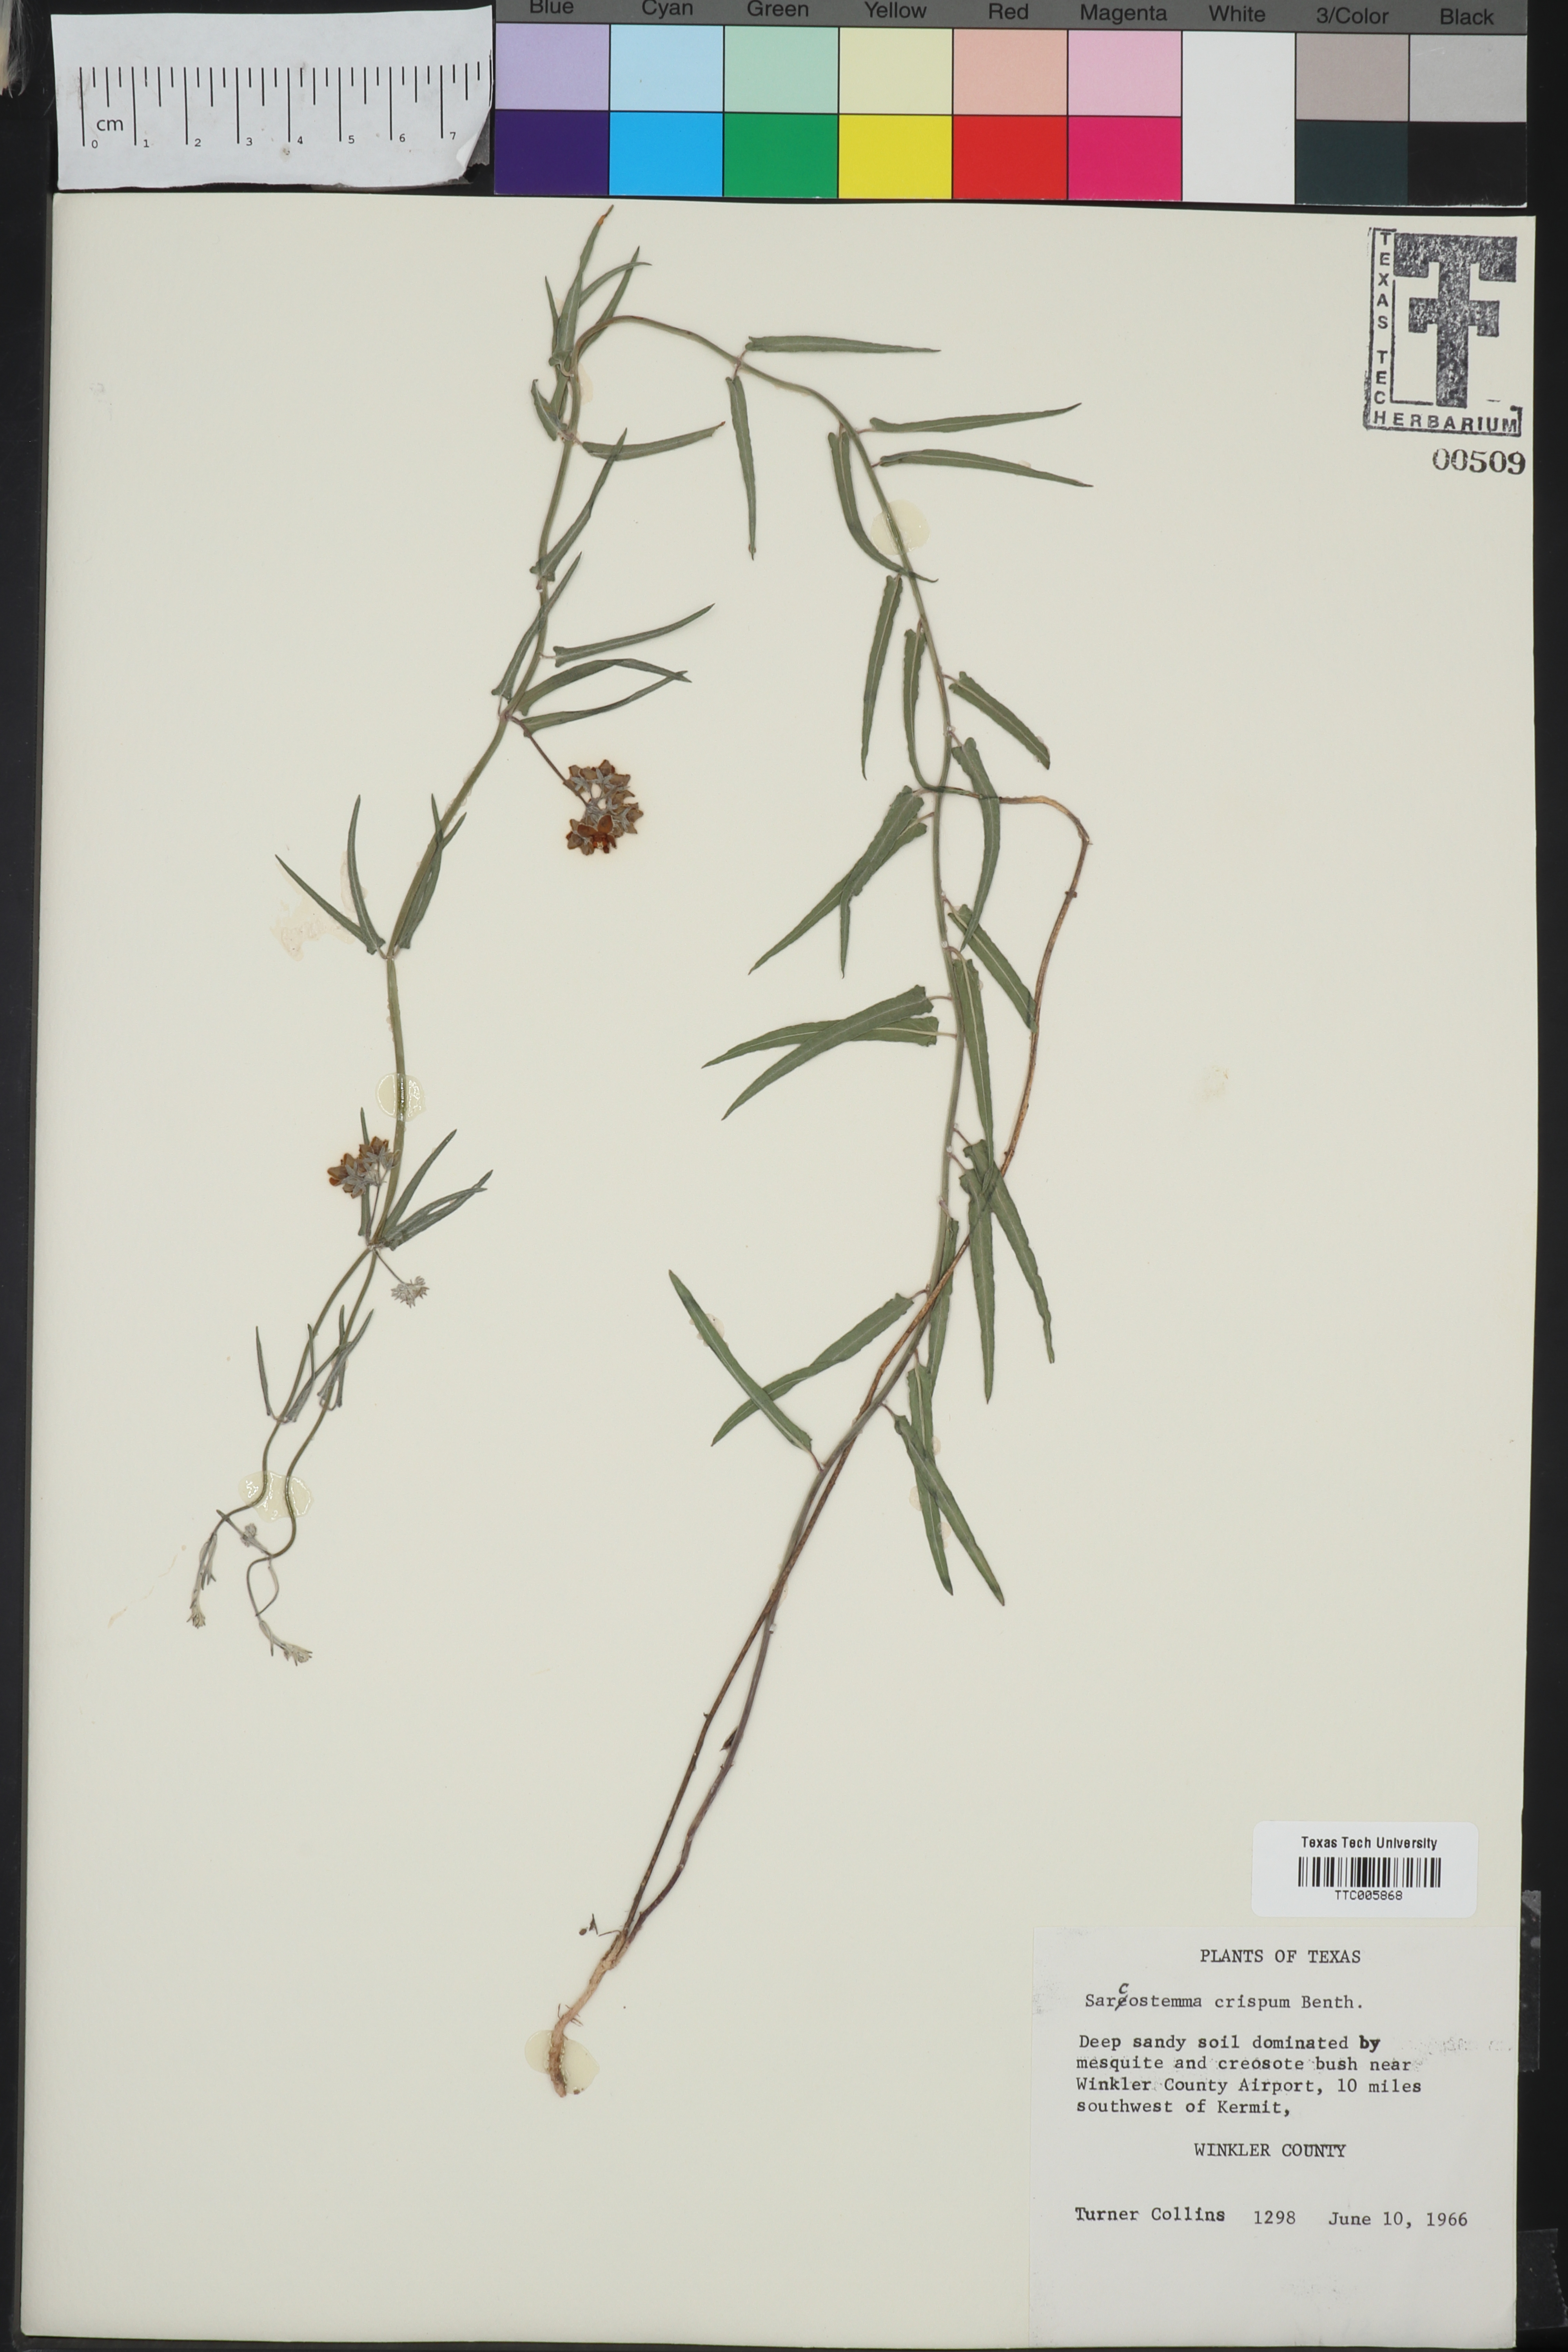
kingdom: Plantae
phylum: Tracheophyta
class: Magnoliopsida
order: Gentianales
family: Apocynaceae
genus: Funastrum
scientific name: Funastrum crispum
